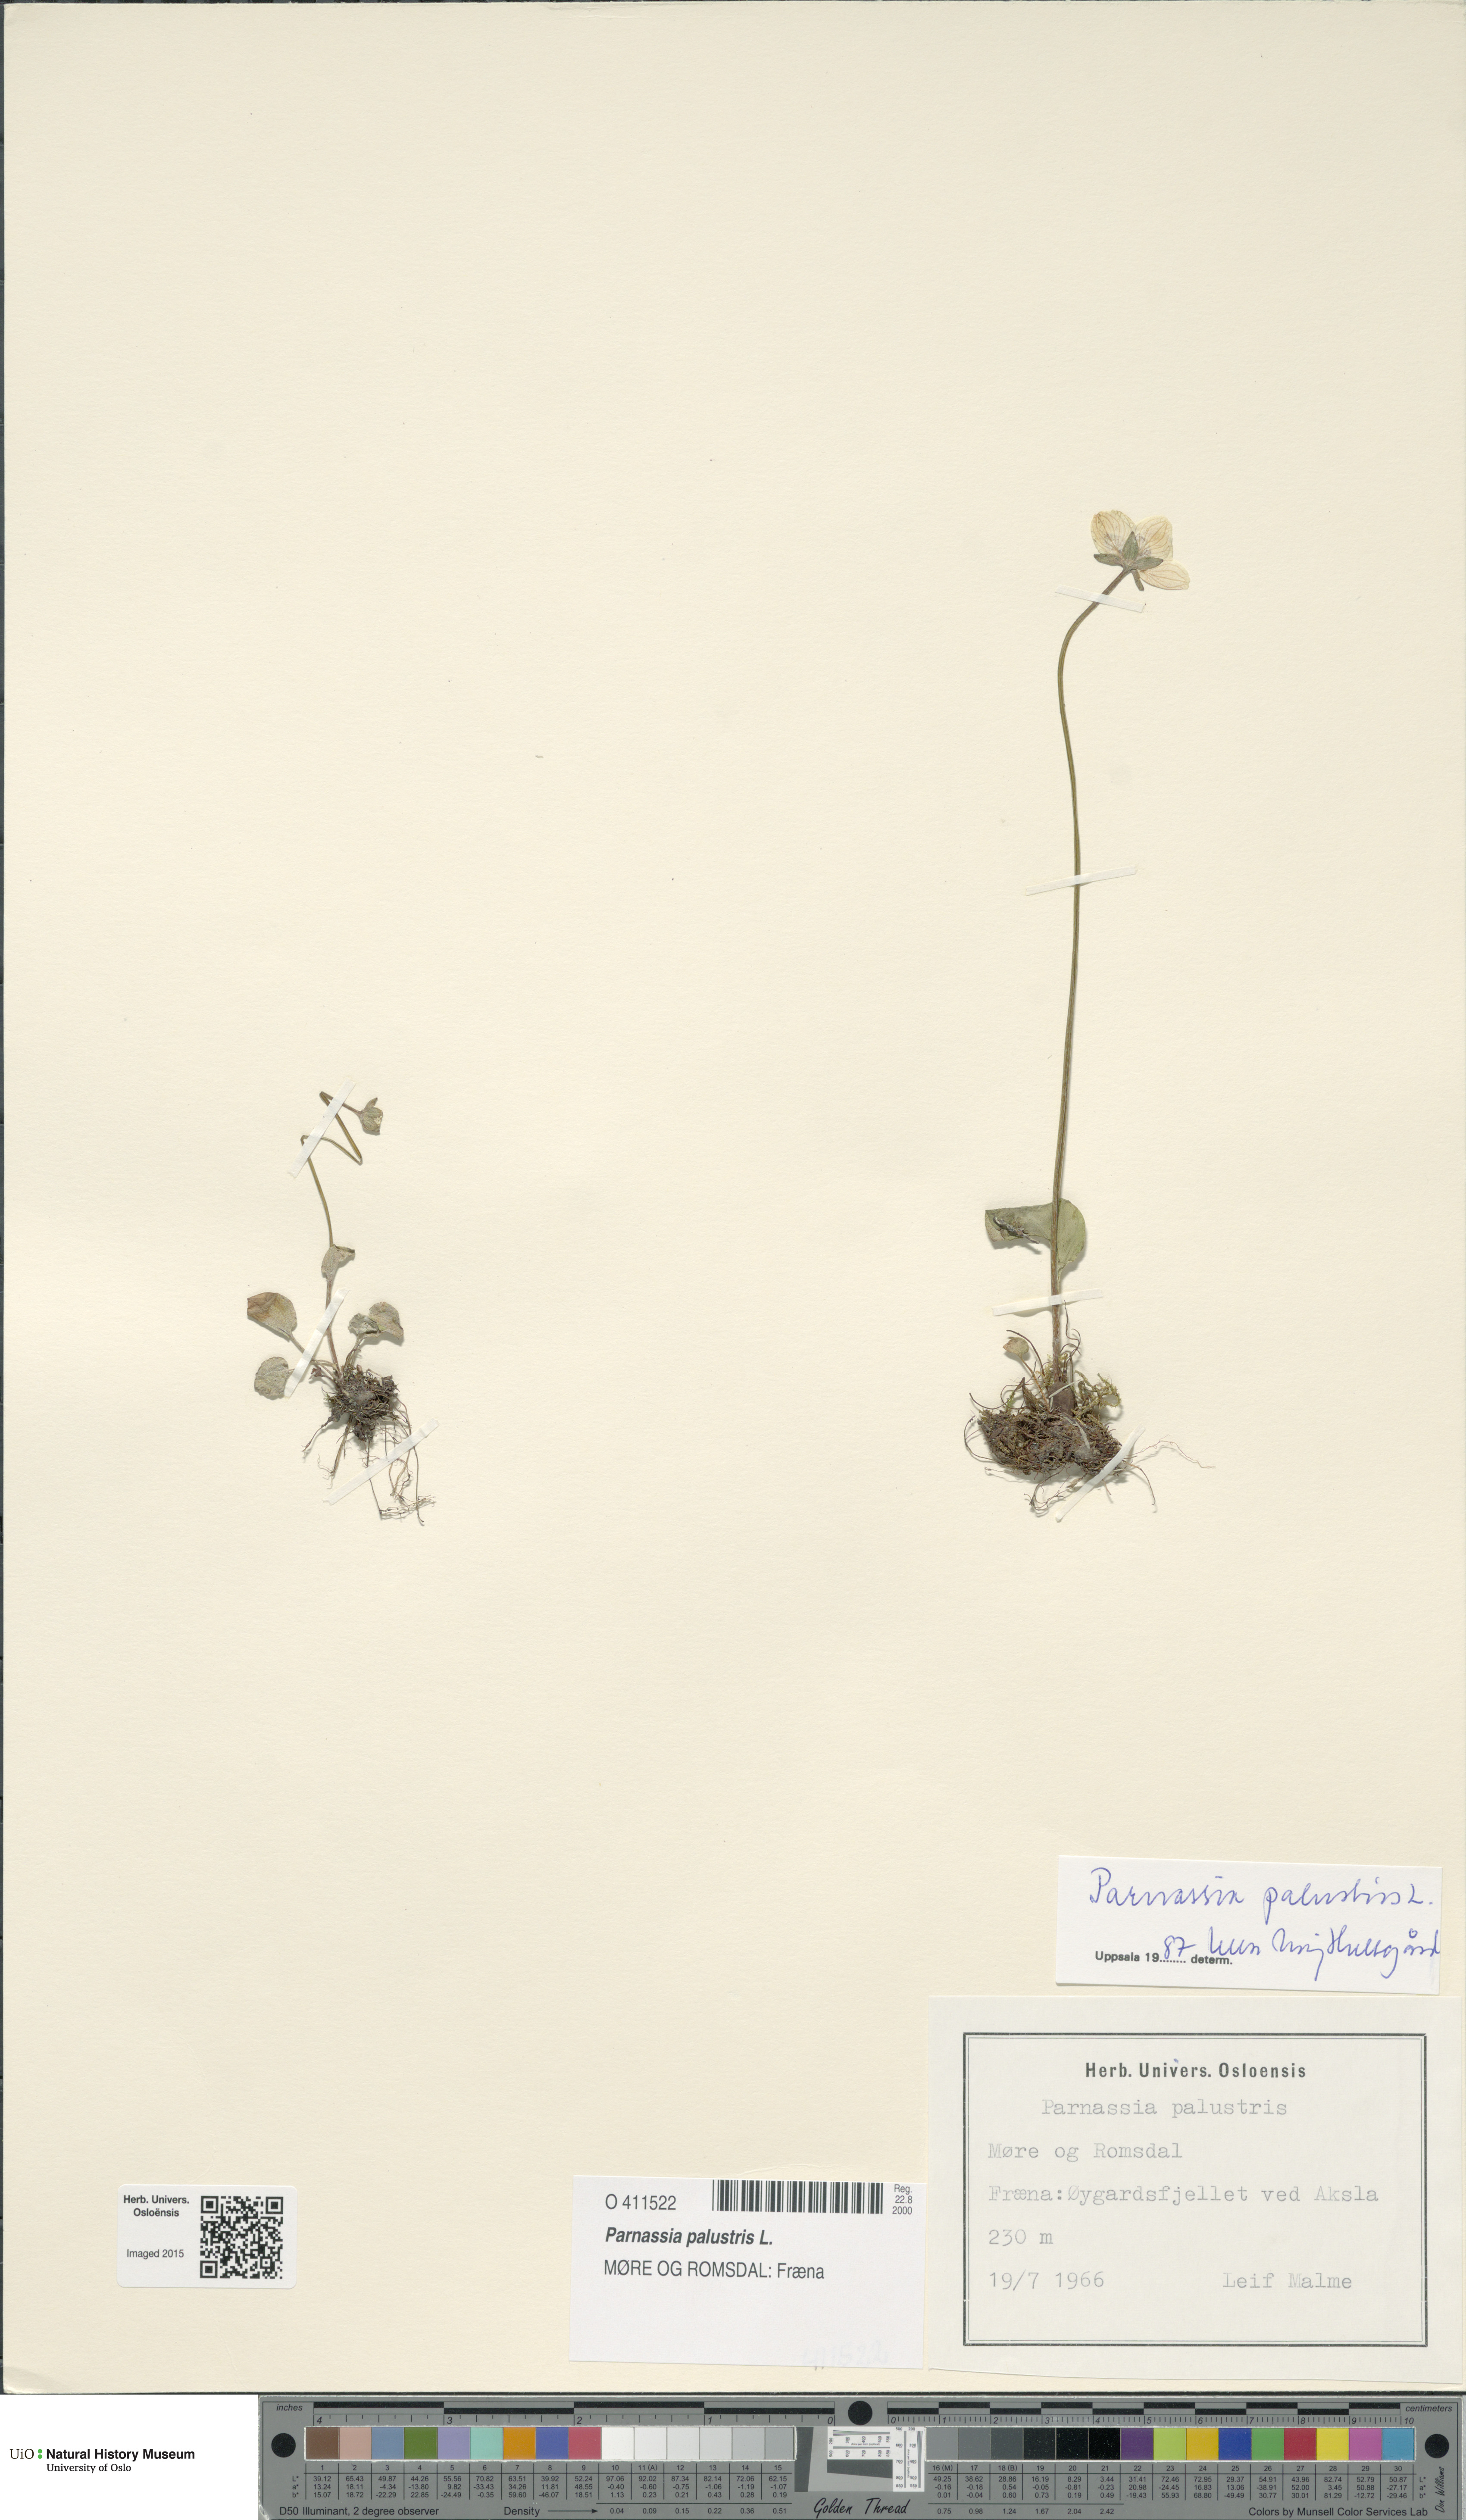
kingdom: Plantae
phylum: Tracheophyta
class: Magnoliopsida
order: Celastrales
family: Parnassiaceae
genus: Parnassia
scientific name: Parnassia palustris
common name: Grass-of-parnassus
